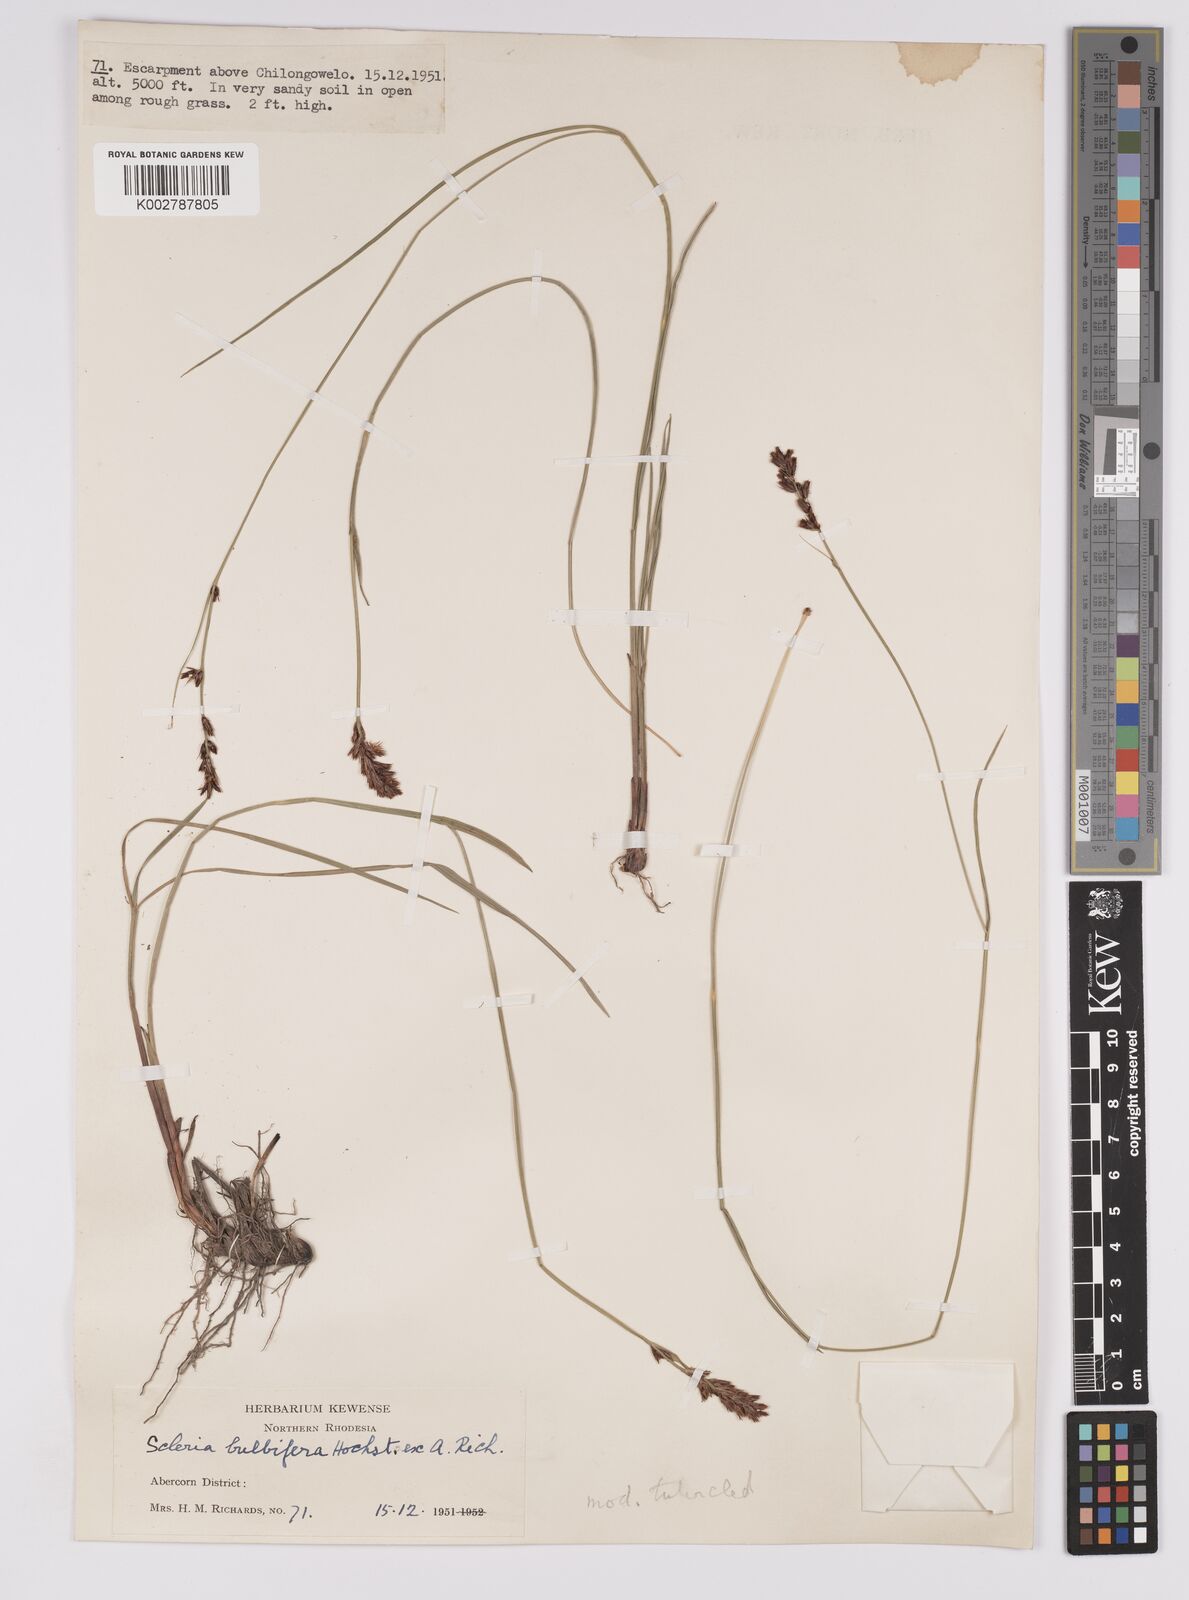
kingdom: Plantae
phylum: Tracheophyta
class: Liliopsida
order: Poales
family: Cyperaceae
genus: Scleria
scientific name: Scleria bulbifera
